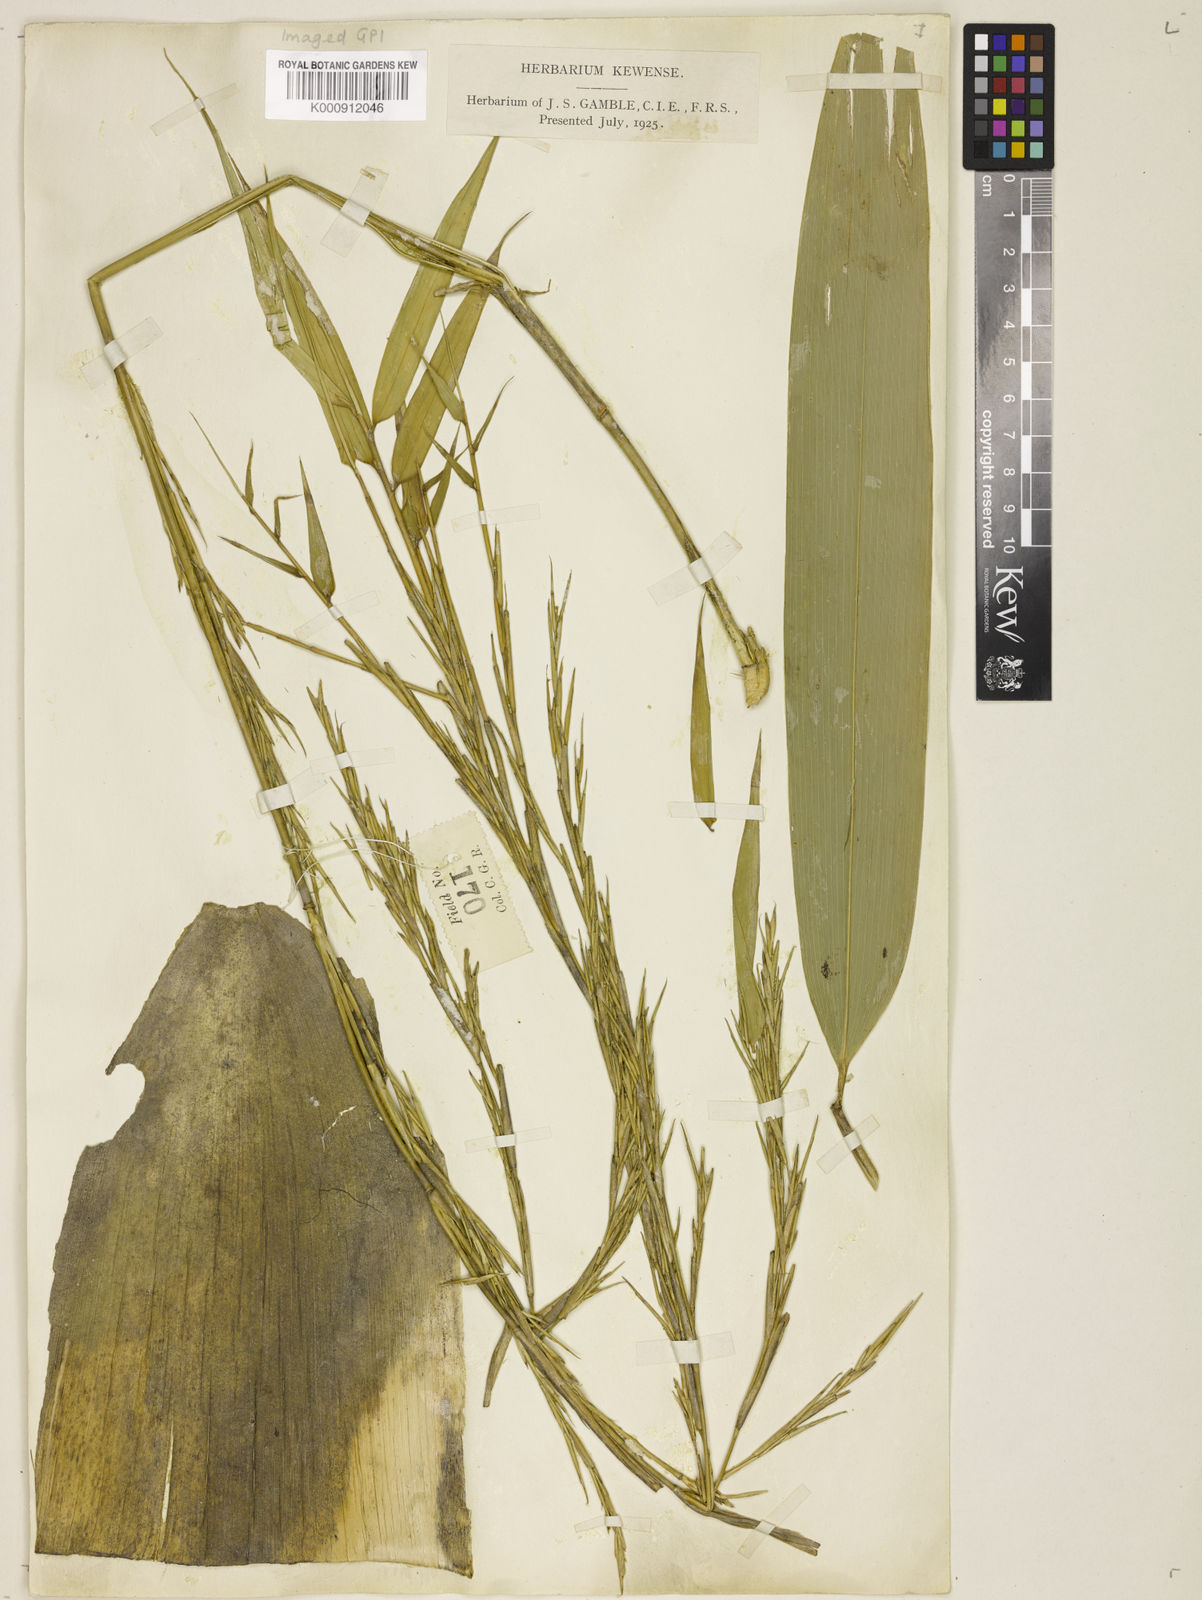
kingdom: Plantae
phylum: Tracheophyta
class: Liliopsida
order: Poales
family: Poaceae
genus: Schizostachyum
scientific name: Schizostachyum
